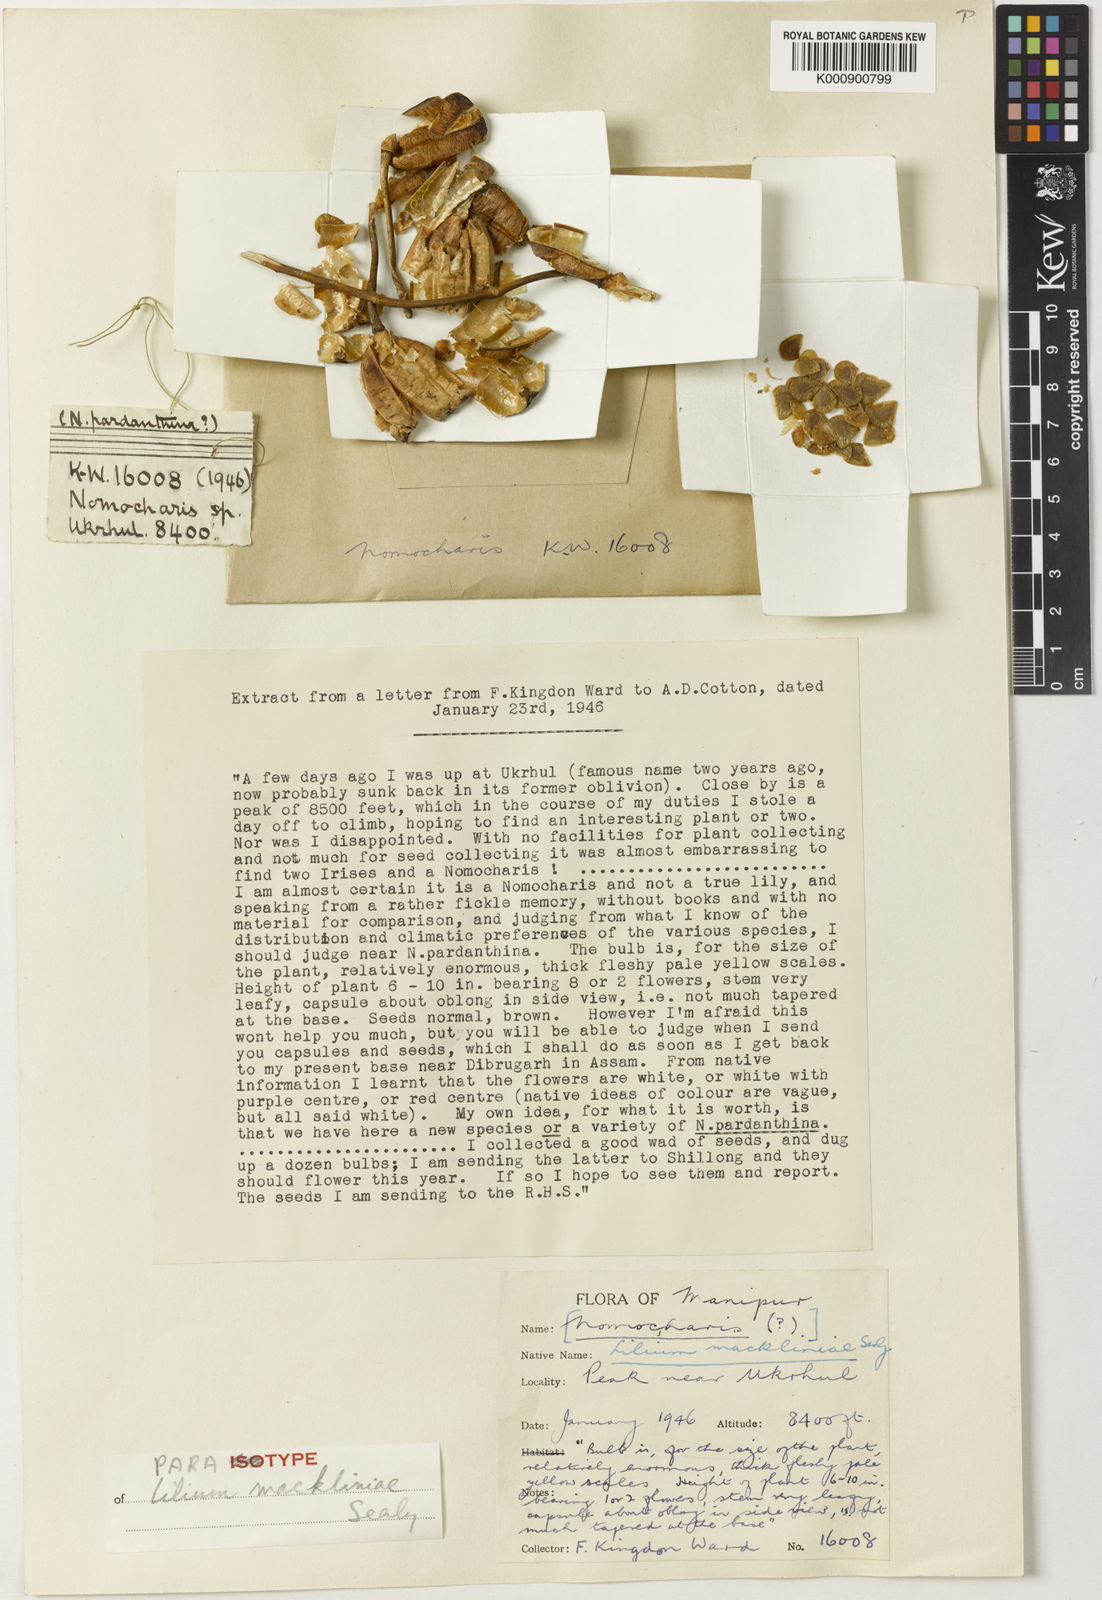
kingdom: Plantae
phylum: Tracheophyta
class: Liliopsida
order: Liliales
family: Liliaceae
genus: Lilium
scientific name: Lilium mackliniae
